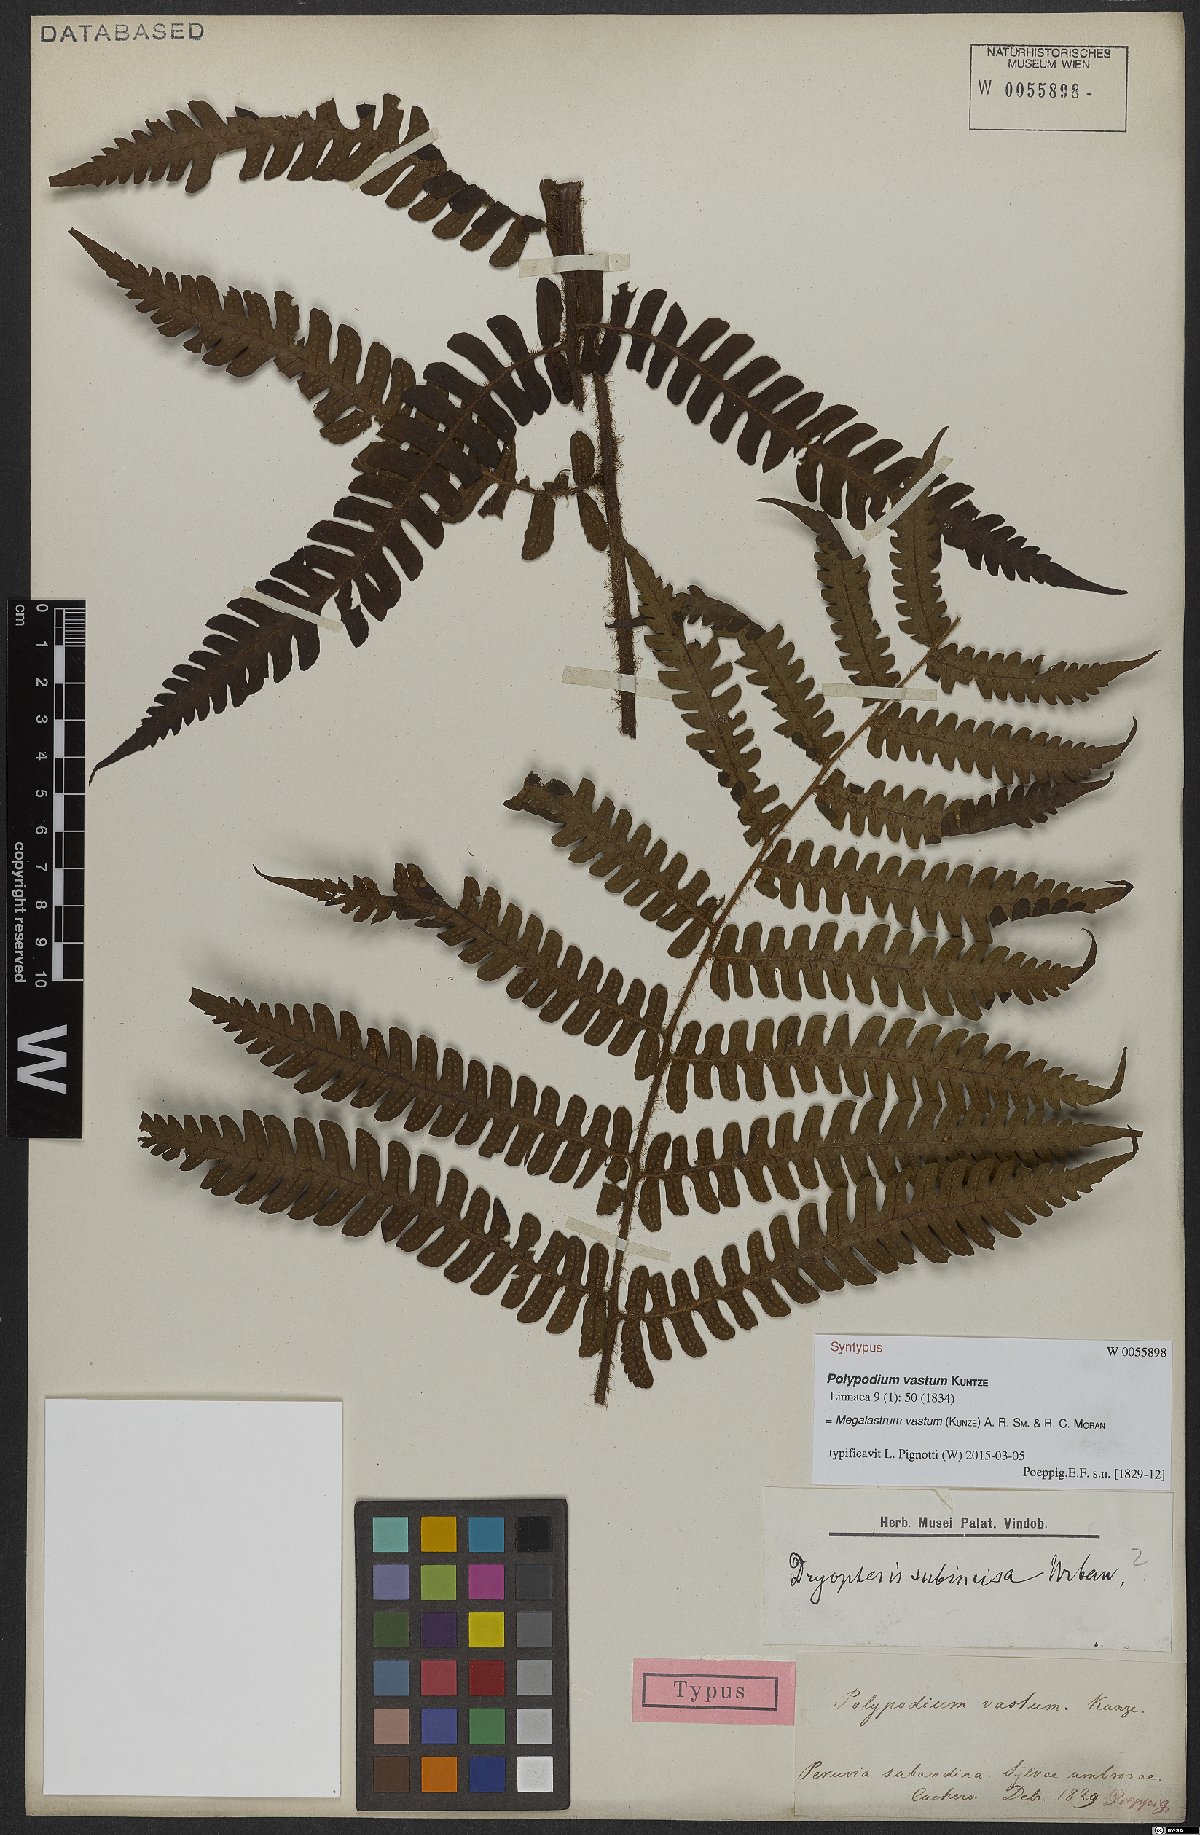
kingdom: Plantae
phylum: Tracheophyta
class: Polypodiopsida
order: Polypodiales
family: Dryopteridaceae
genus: Megalastrum
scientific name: Megalastrum vastum
